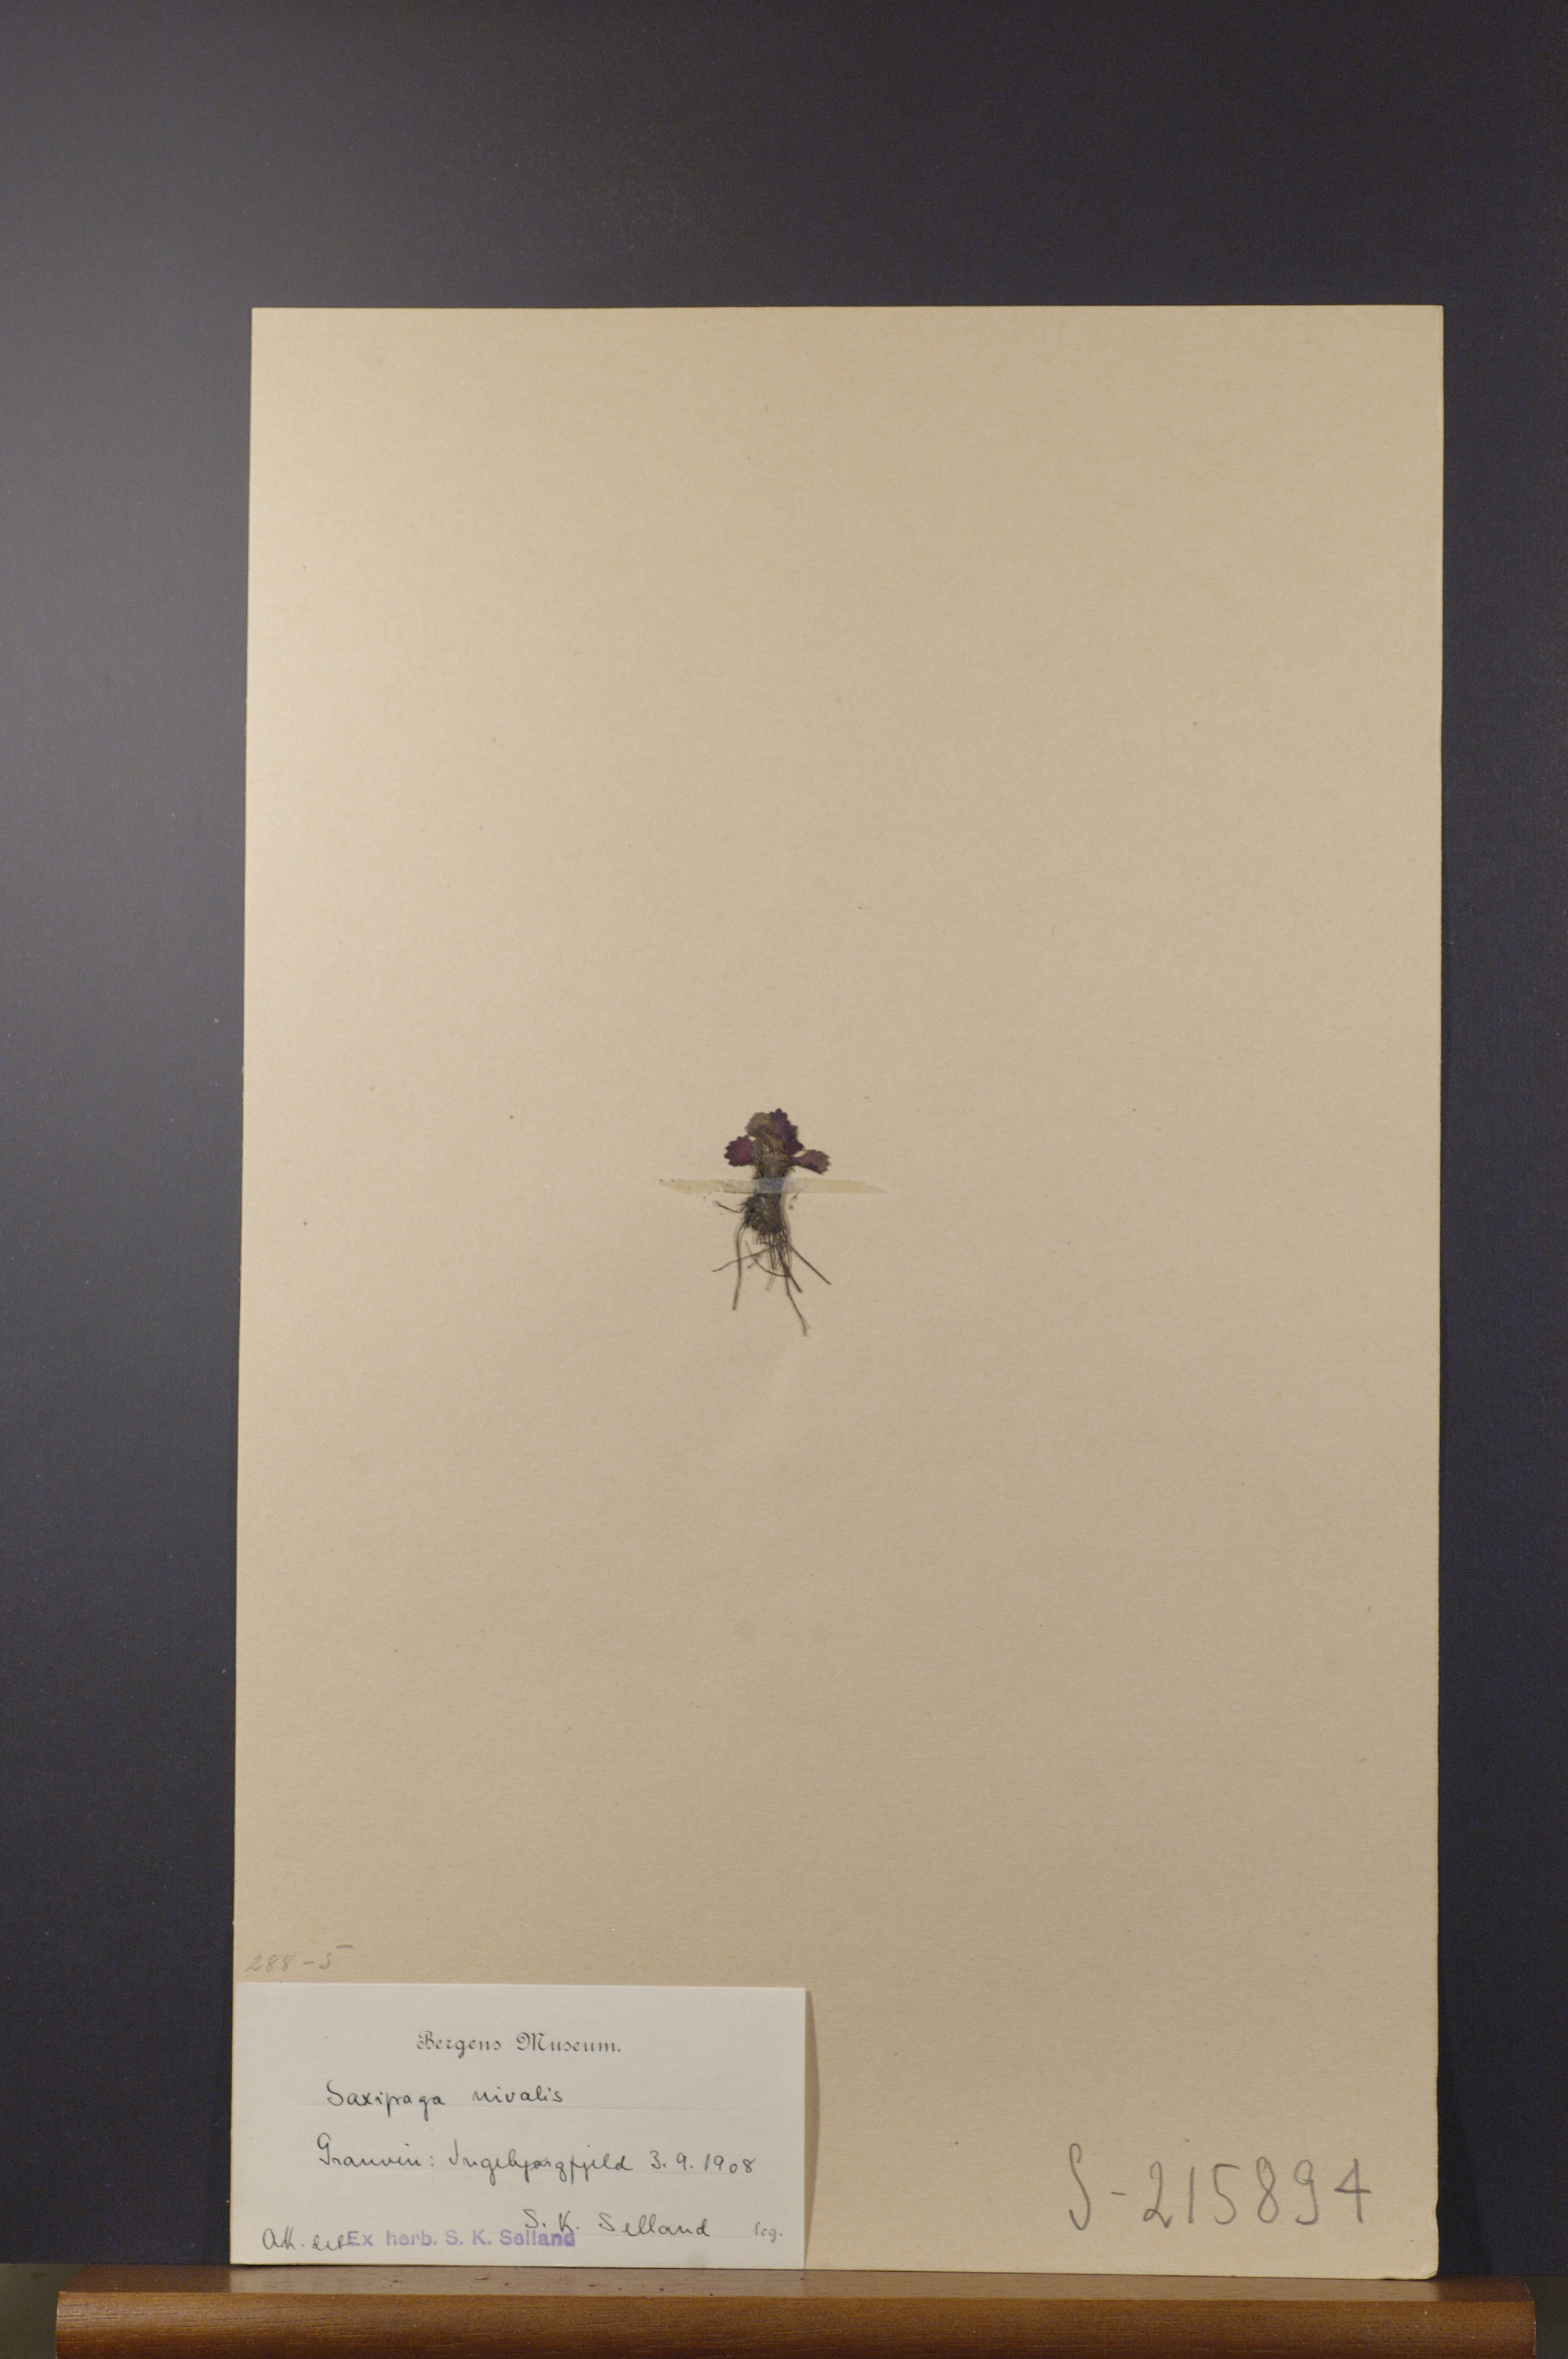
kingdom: Plantae
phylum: Tracheophyta
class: Magnoliopsida
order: Saxifragales
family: Saxifragaceae
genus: Micranthes
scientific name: Micranthes nivalis
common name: Alpine saxifrage
